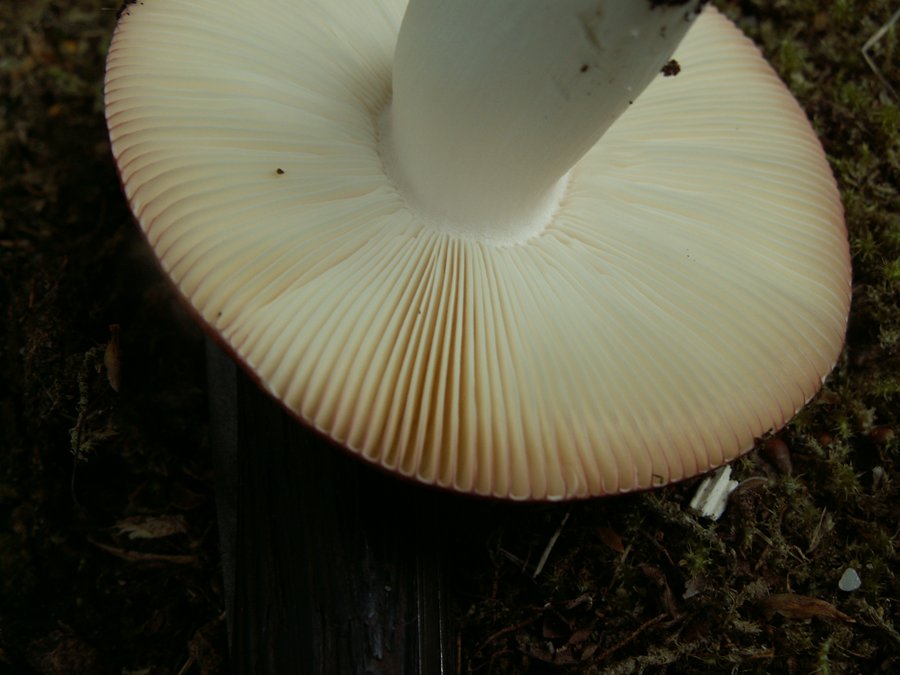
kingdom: Fungi
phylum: Basidiomycota
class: Agaricomycetes
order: Russulales
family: Russulaceae
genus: Russula
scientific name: Russula velenovskyi
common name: orangerød skørhat
